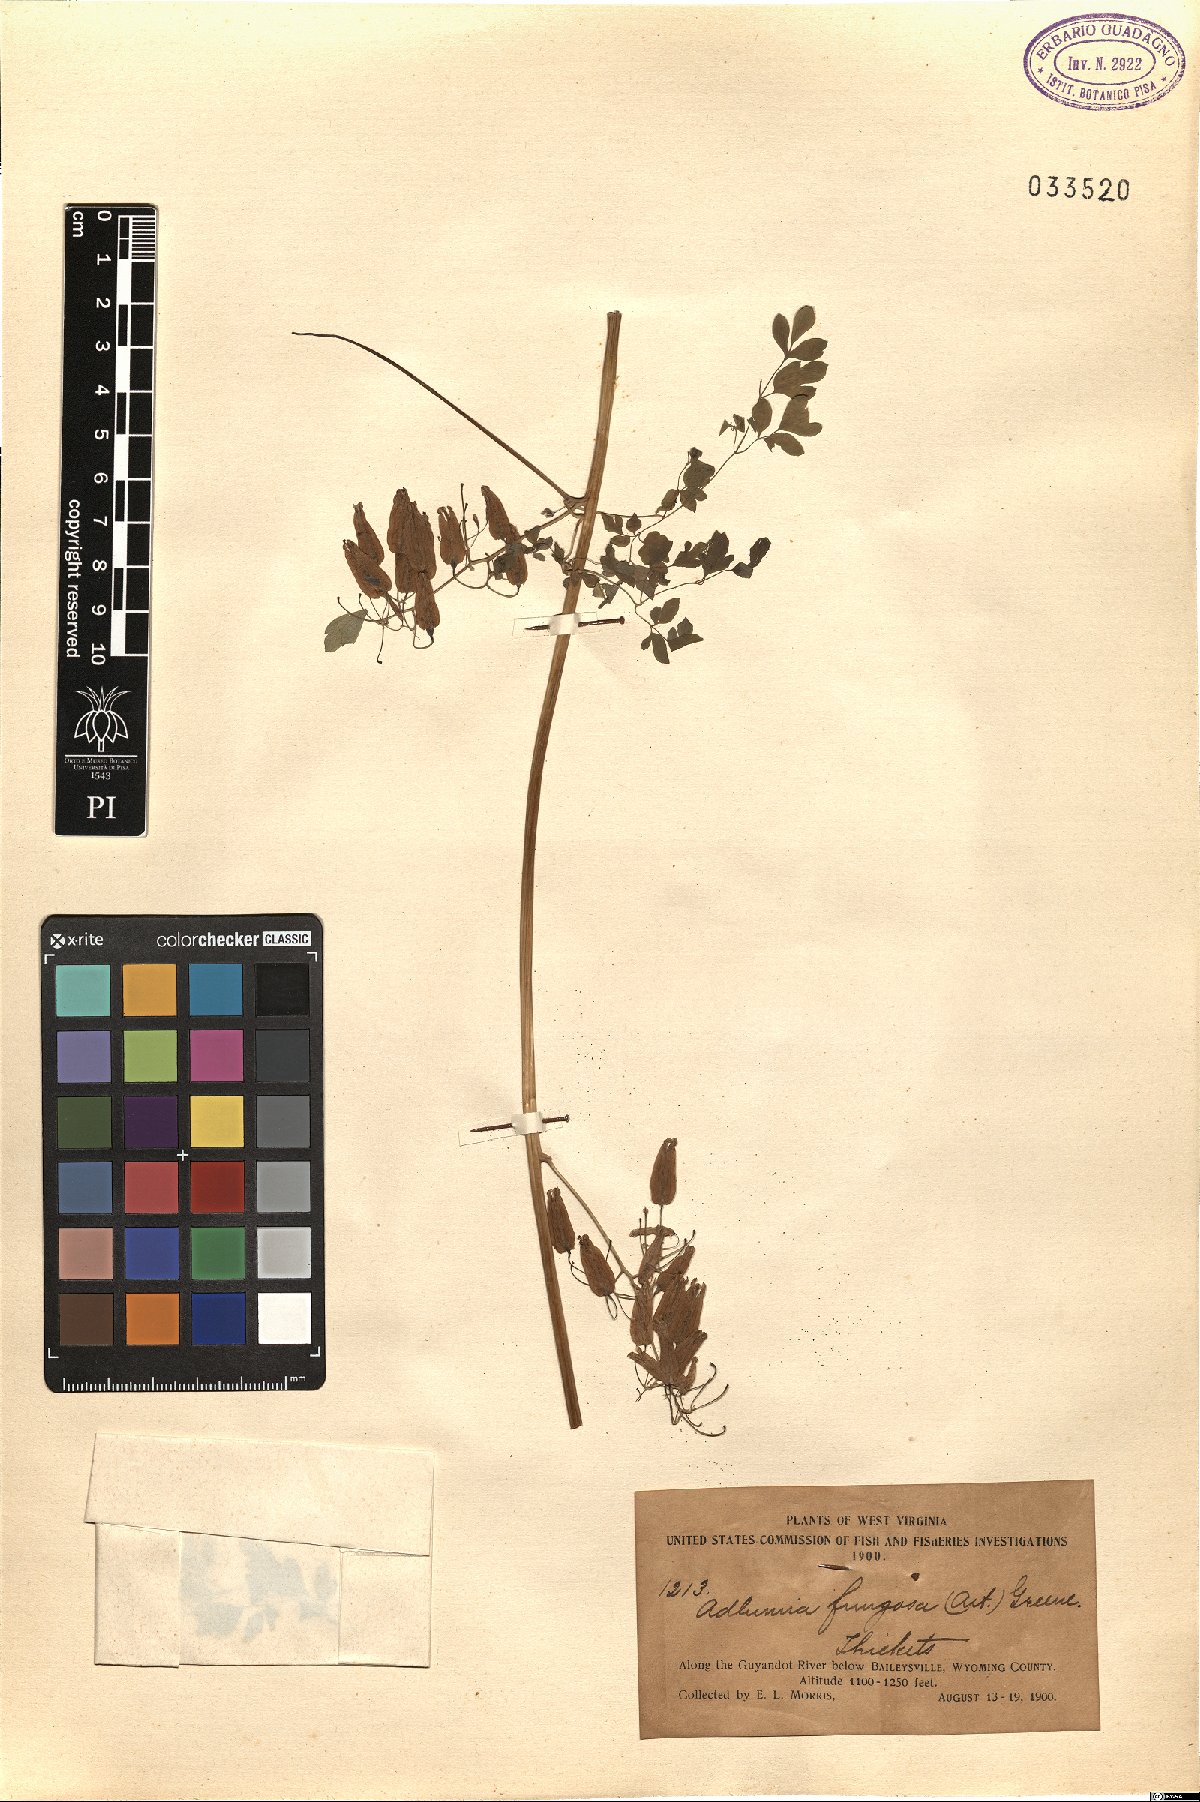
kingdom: Plantae
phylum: Tracheophyta
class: Magnoliopsida
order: Ranunculales
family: Papaveraceae
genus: Adlumia
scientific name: Adlumia fungosa
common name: Mountain-fringe
